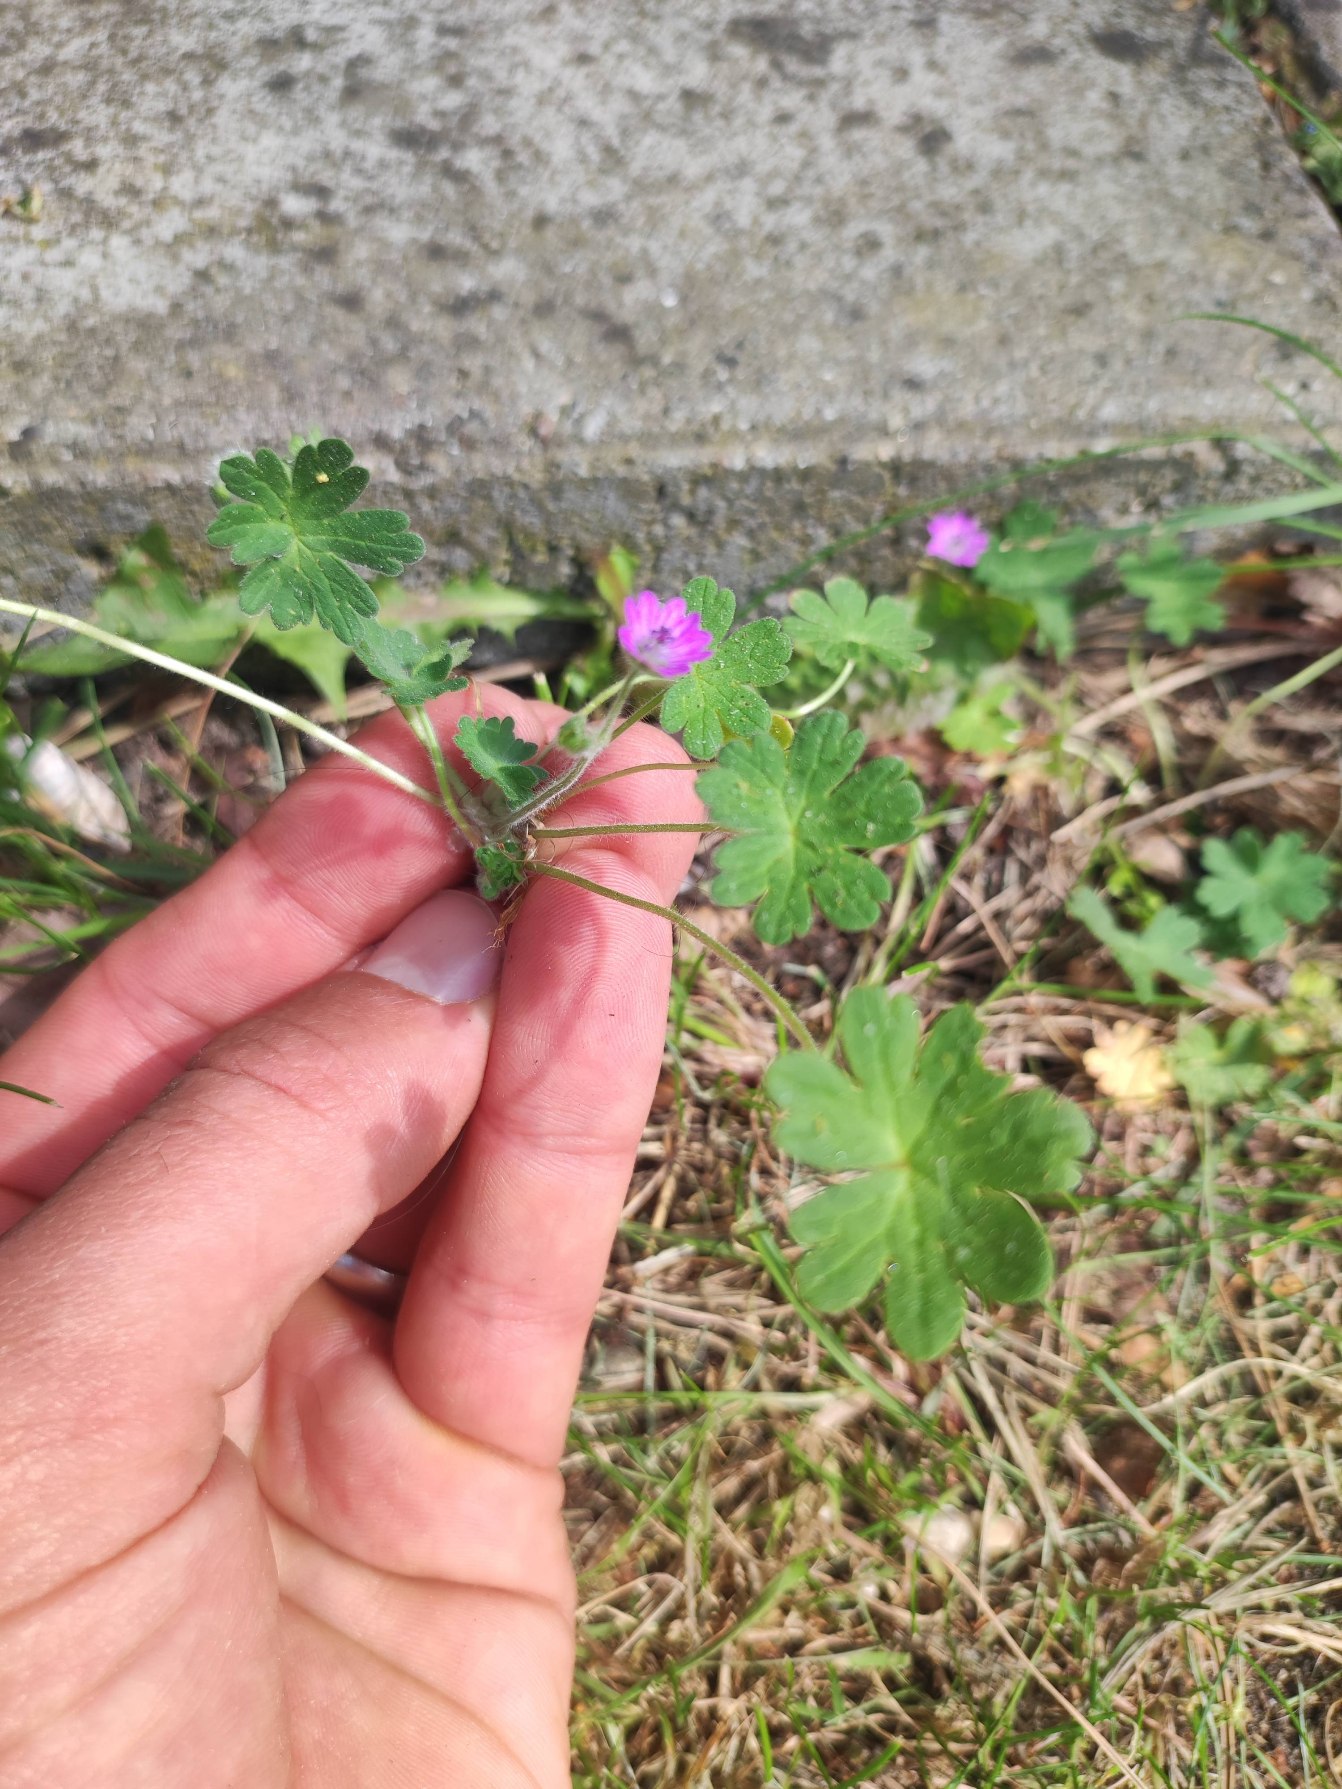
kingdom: Plantae
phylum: Tracheophyta
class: Magnoliopsida
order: Geraniales
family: Geraniaceae
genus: Geranium
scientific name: Geranium molle
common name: Blød storkenæb
